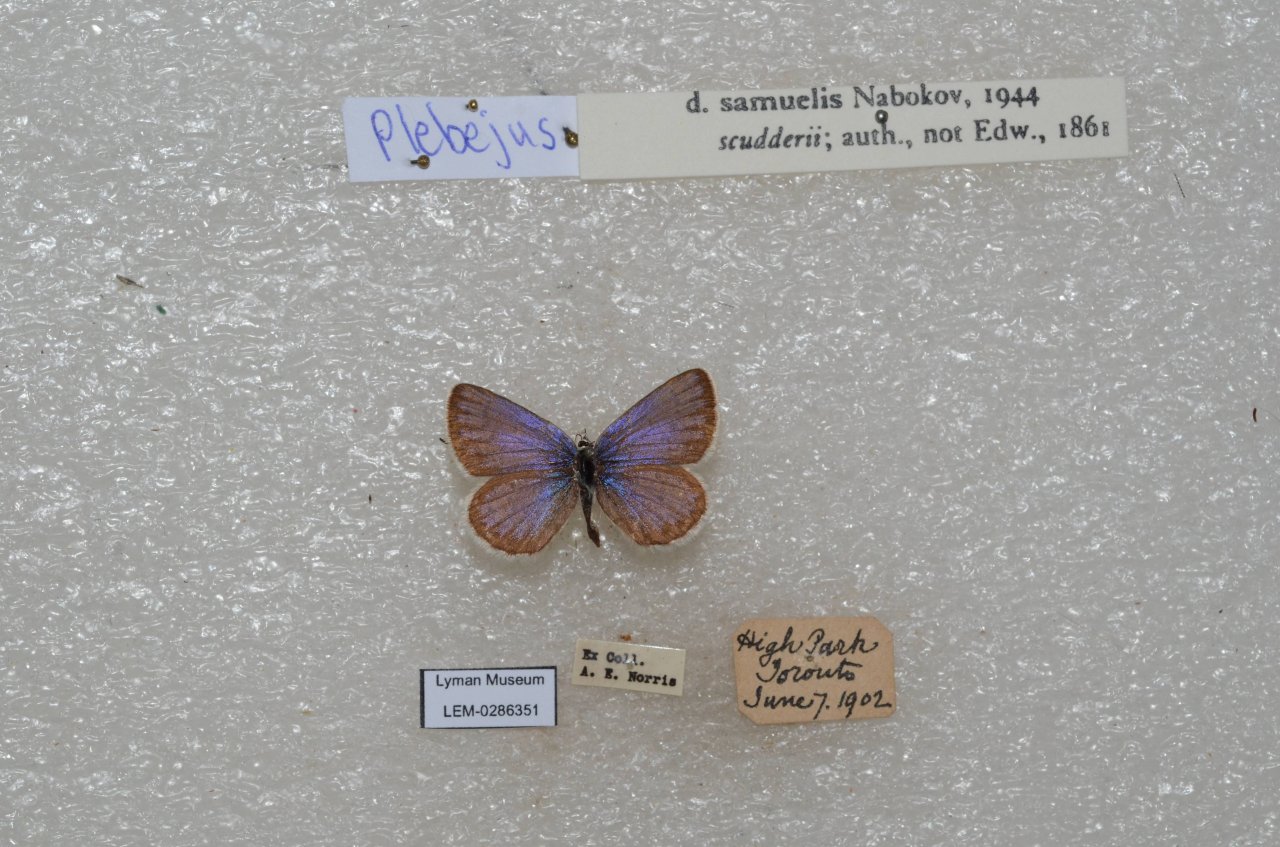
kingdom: Animalia
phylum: Arthropoda
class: Insecta
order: Lepidoptera
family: Lycaenidae
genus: Plebejus
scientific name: Plebejus samuelis
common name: Karner Blue
